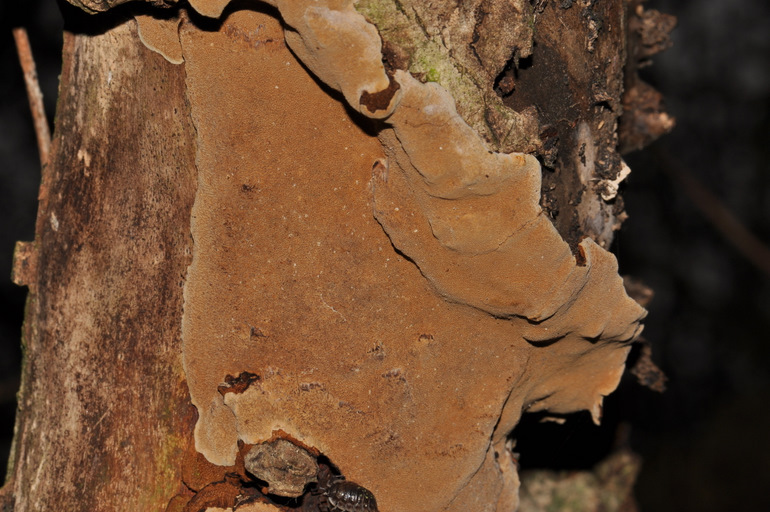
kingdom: Fungi
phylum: Basidiomycota
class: Agaricomycetes
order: Hymenochaetales
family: Hymenochaetaceae
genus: Fuscoporia
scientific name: Fuscoporia ferrea
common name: skorpe-ildporesvamp
